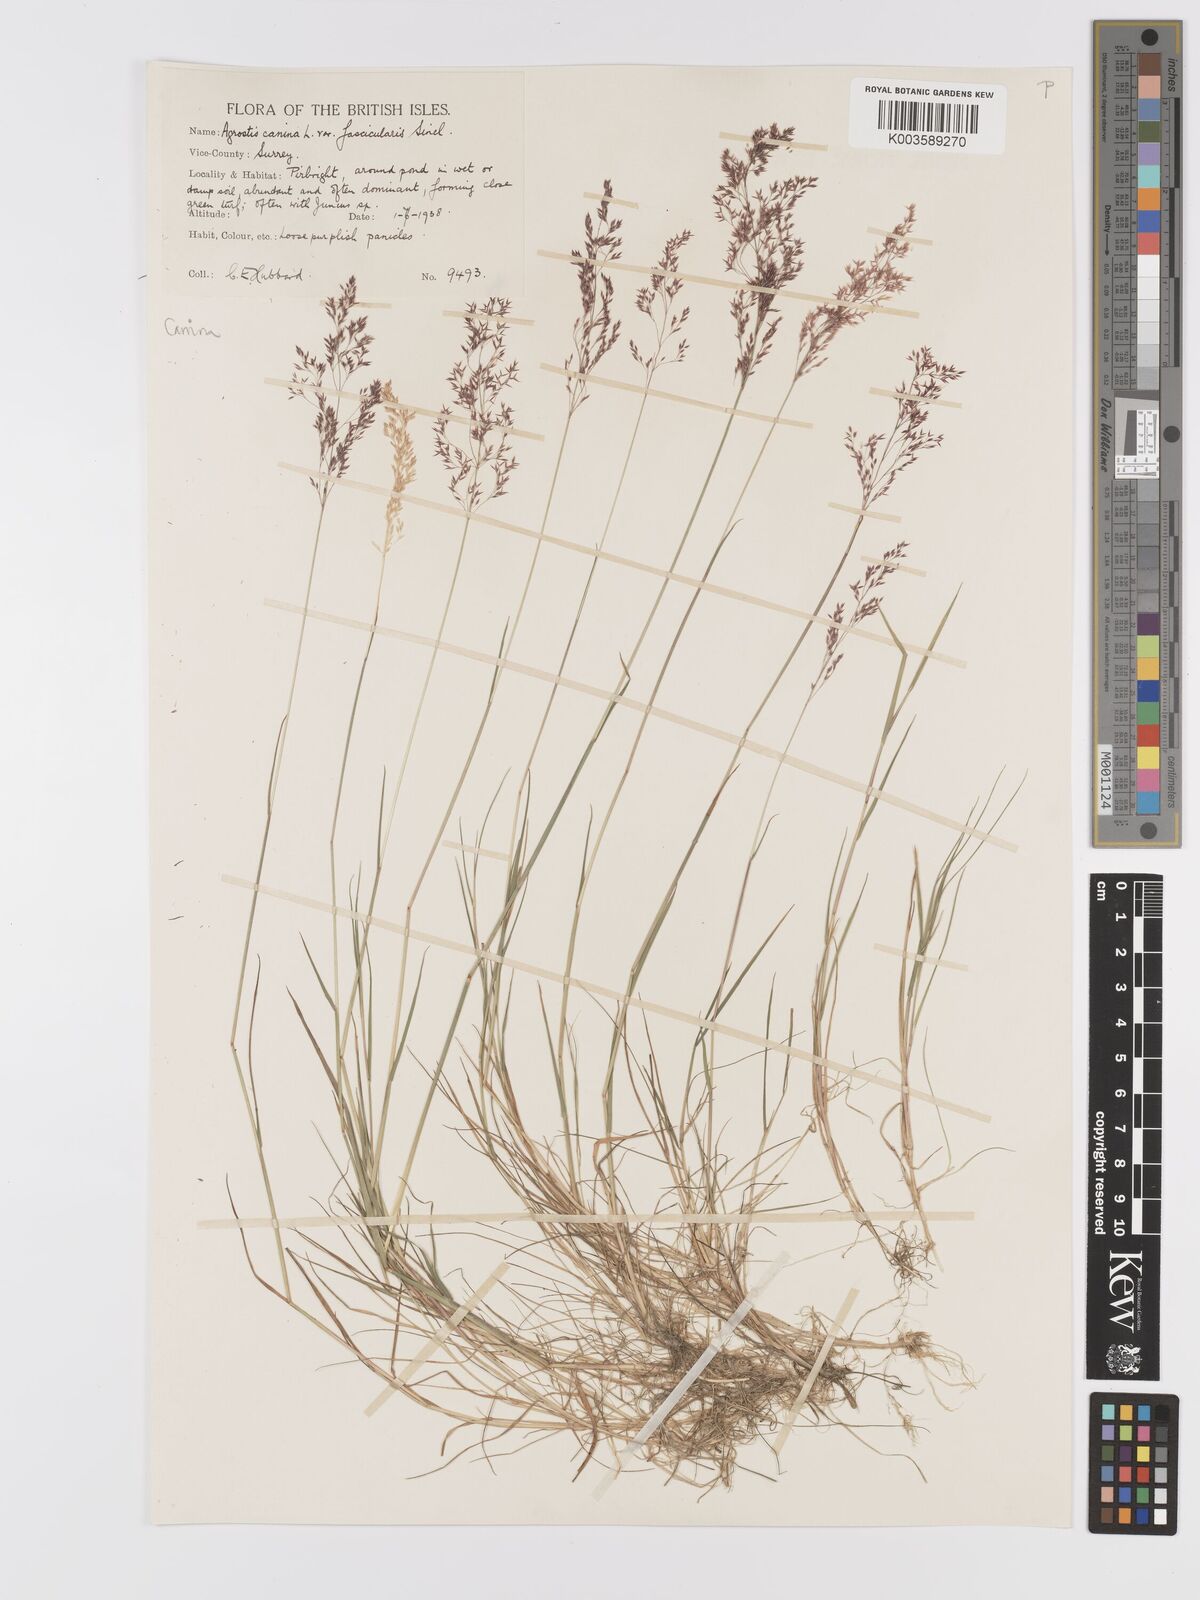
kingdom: Plantae
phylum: Tracheophyta
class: Liliopsida
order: Poales
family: Poaceae
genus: Agrostis
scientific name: Agrostis canina
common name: Velvet bent
